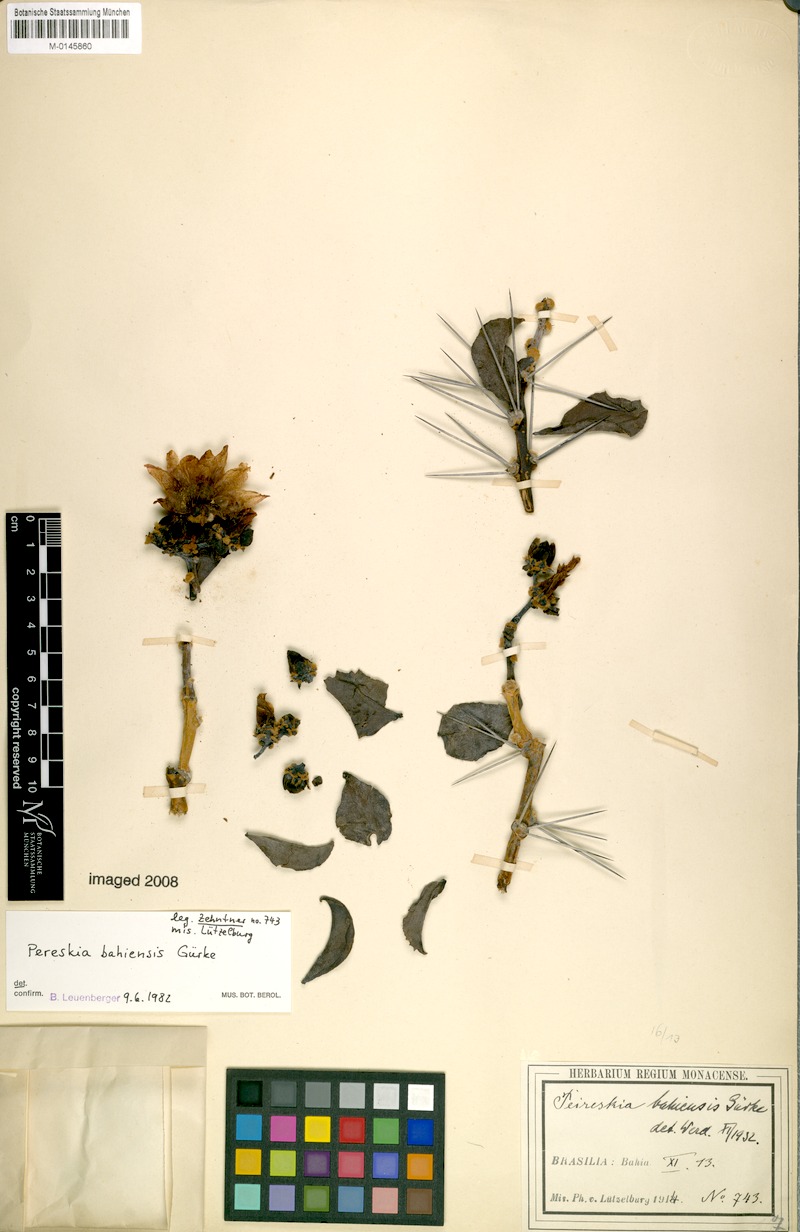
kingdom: Plantae
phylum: Tracheophyta
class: Magnoliopsida
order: Caryophyllales
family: Cactaceae
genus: Pereskia
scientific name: Pereskia bahiensis
